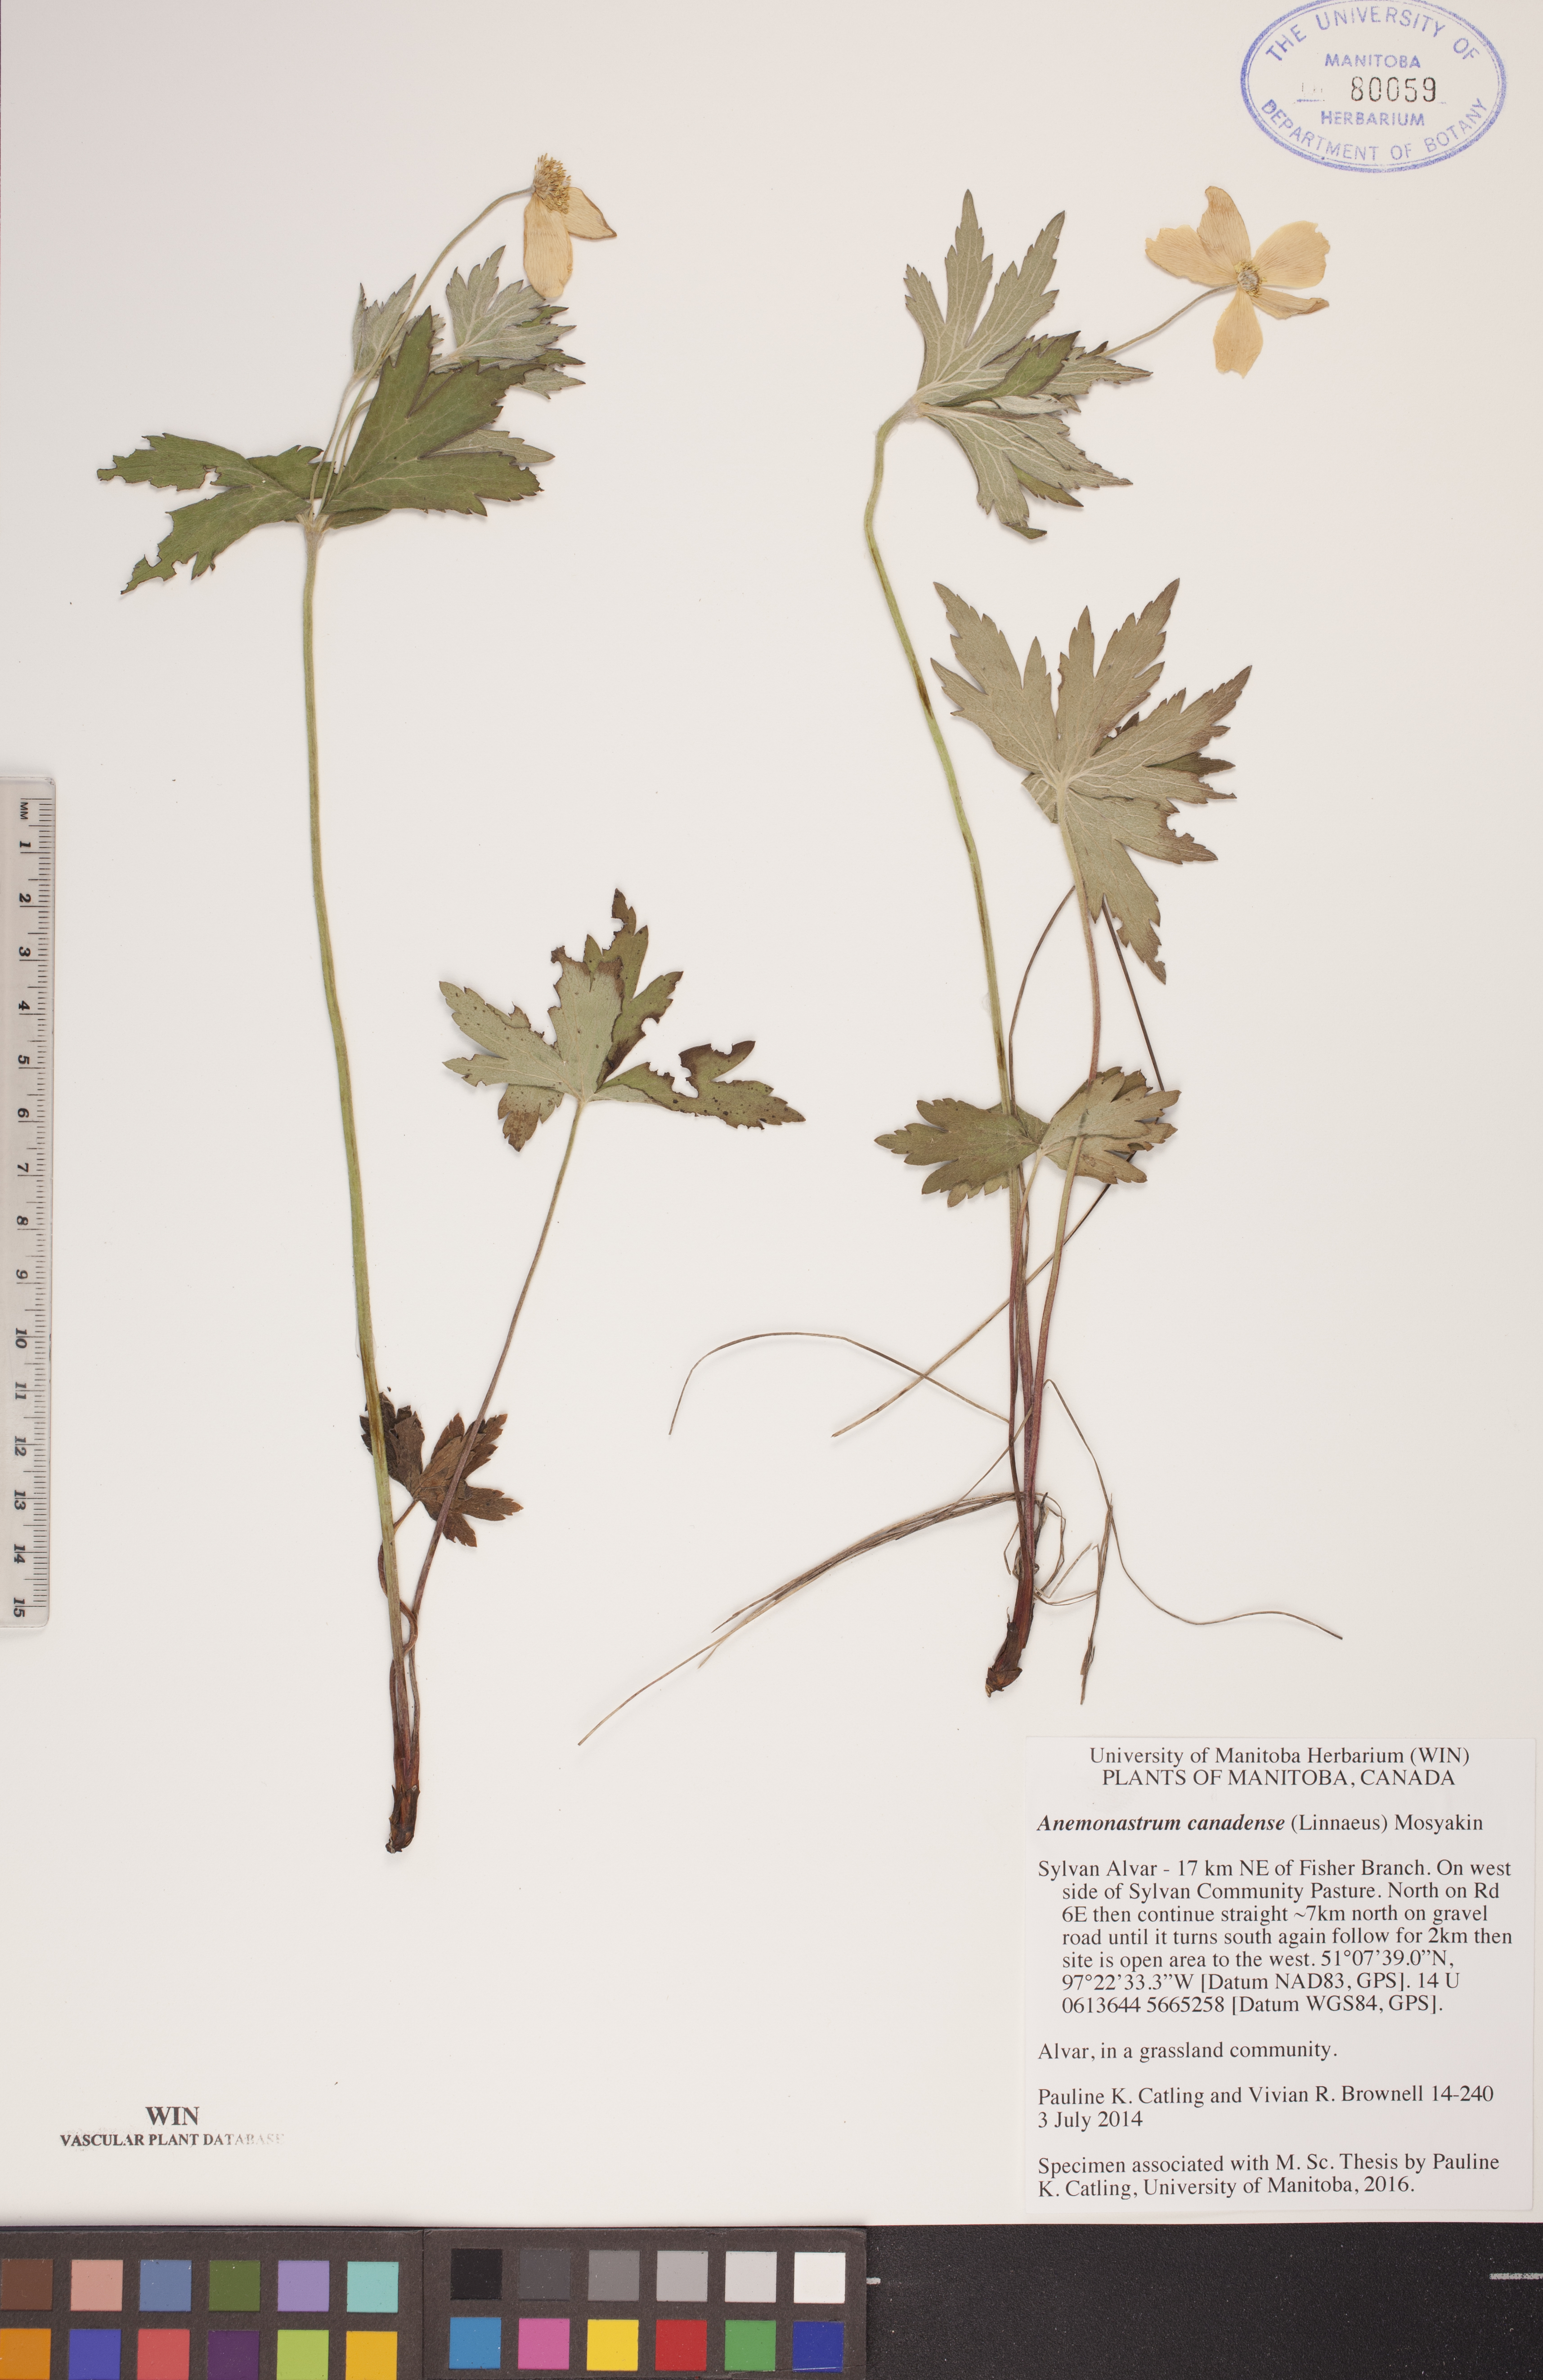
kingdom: Plantae
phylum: Tracheophyta
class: Magnoliopsida
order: Ranunculales
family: Ranunculaceae
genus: Anemonastrum
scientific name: Anemonastrum canadense
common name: Canada anemone
